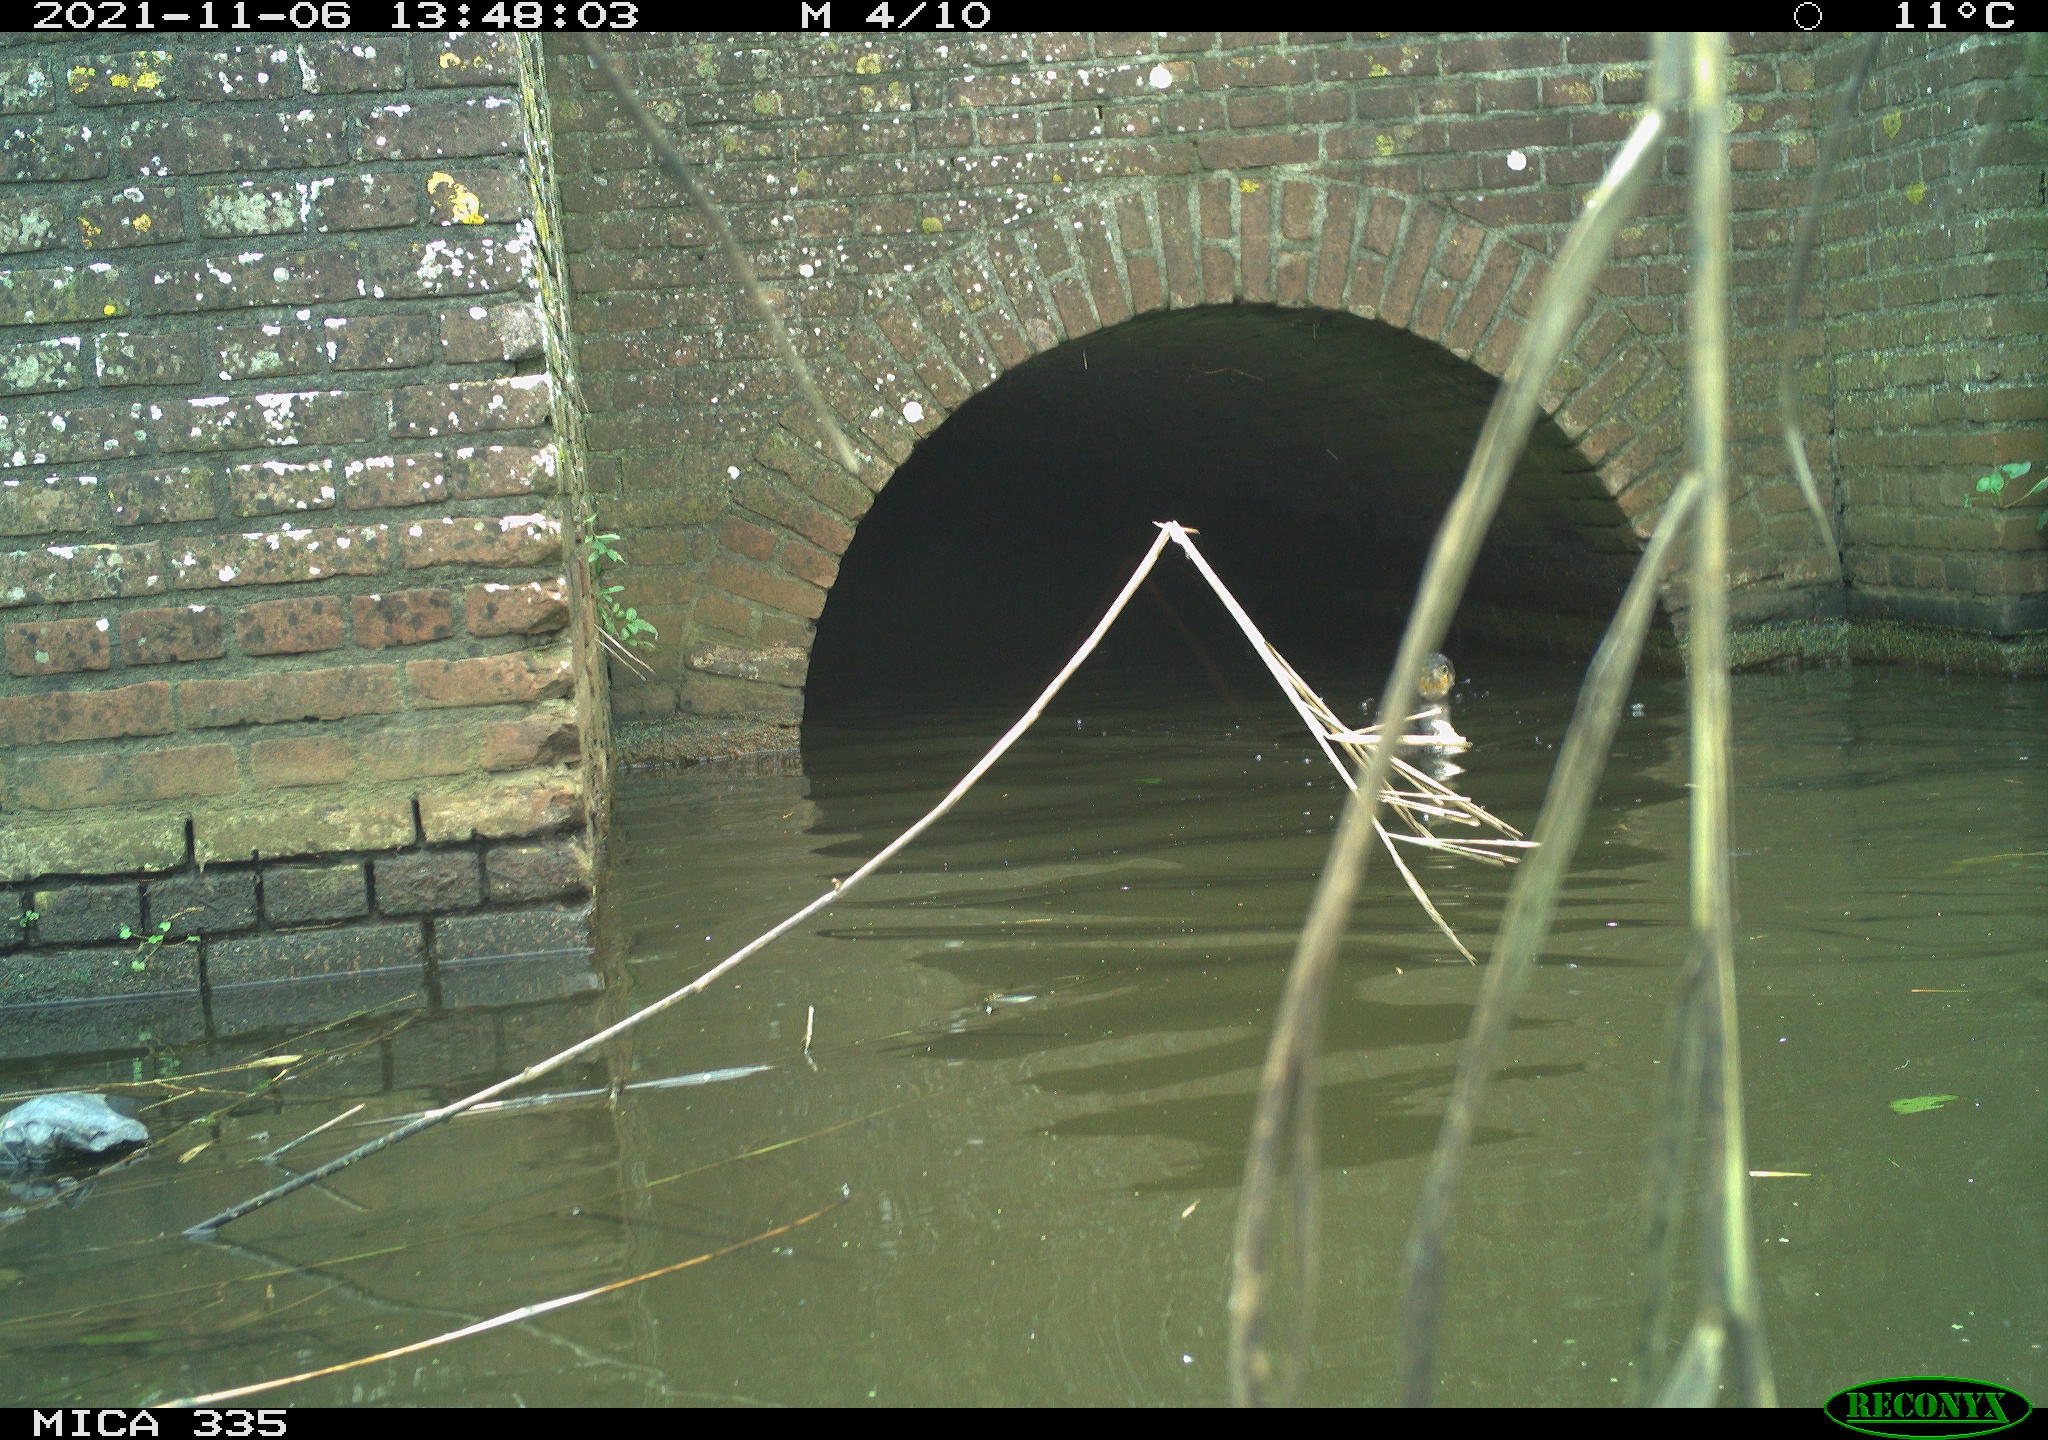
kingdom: Animalia
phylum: Chordata
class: Aves
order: Suliformes
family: Phalacrocoracidae
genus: Phalacrocorax
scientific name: Phalacrocorax carbo
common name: Great cormorant
